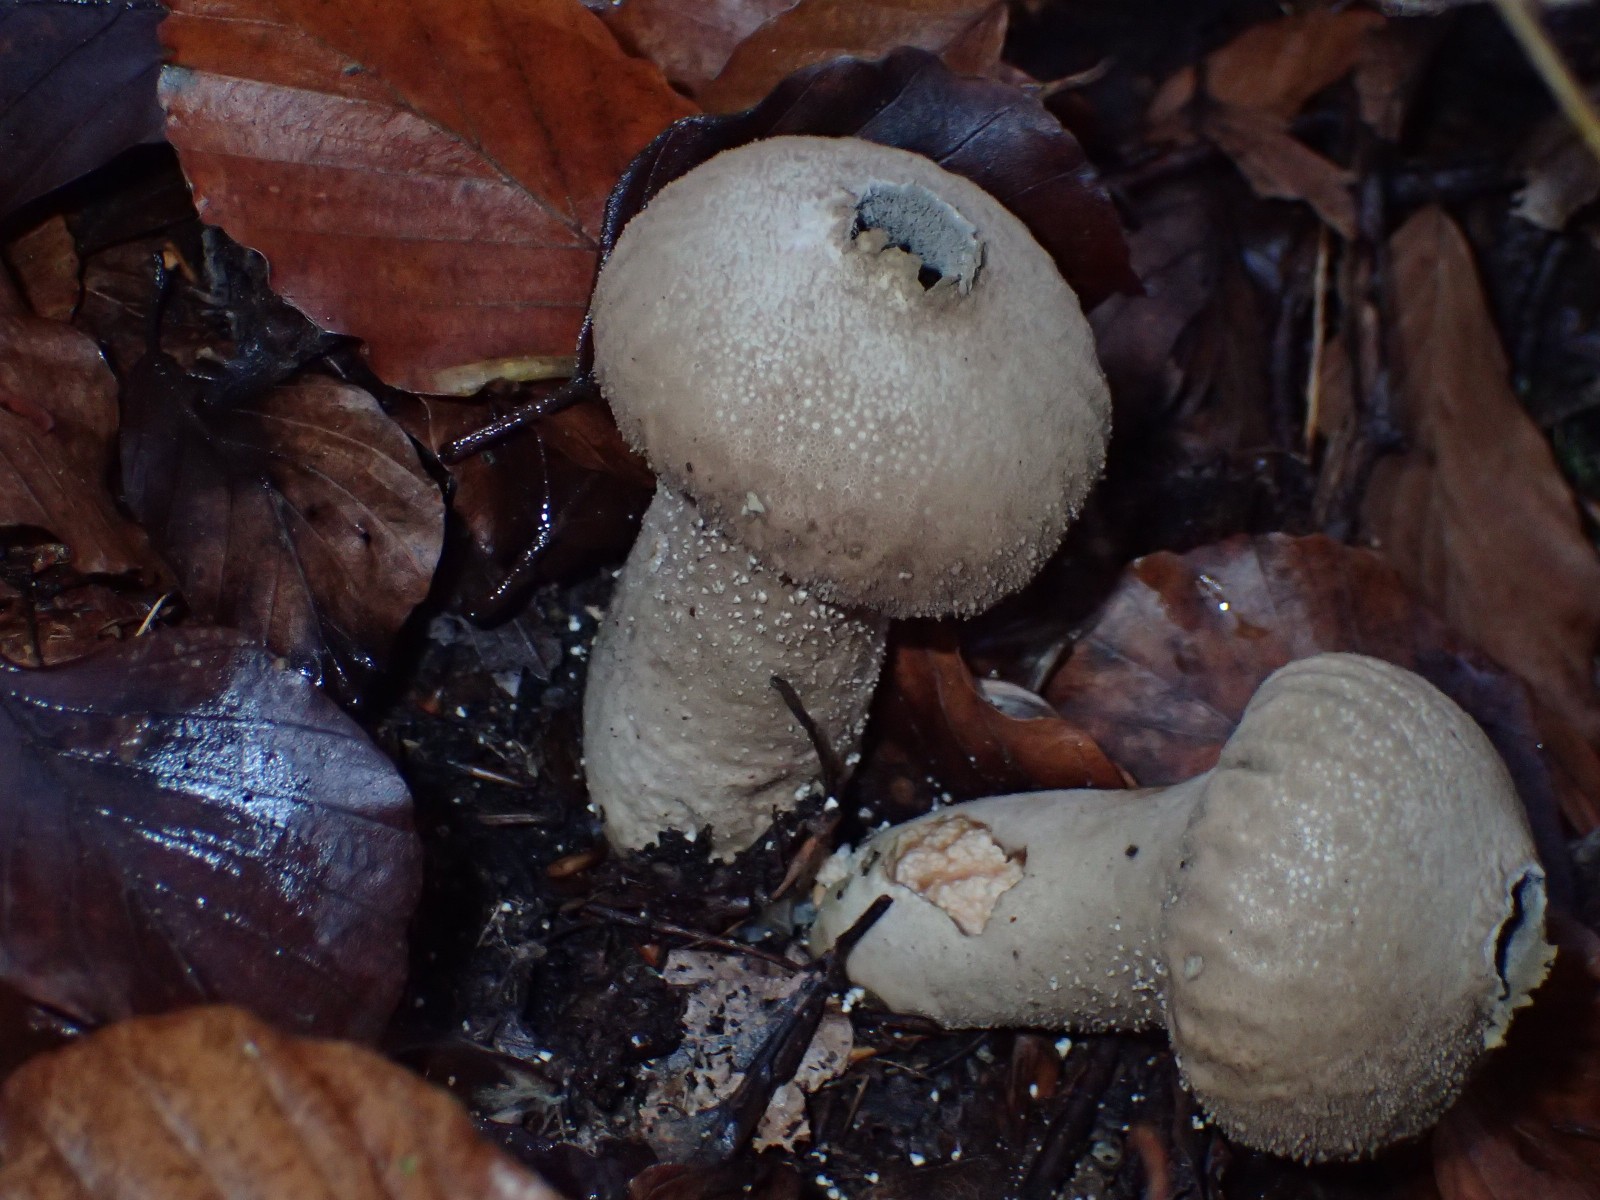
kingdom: Fungi
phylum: Basidiomycota
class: Agaricomycetes
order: Agaricales
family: Lycoperdaceae
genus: Lycoperdon
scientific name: Lycoperdon perlatum
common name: krystal-støvbold
